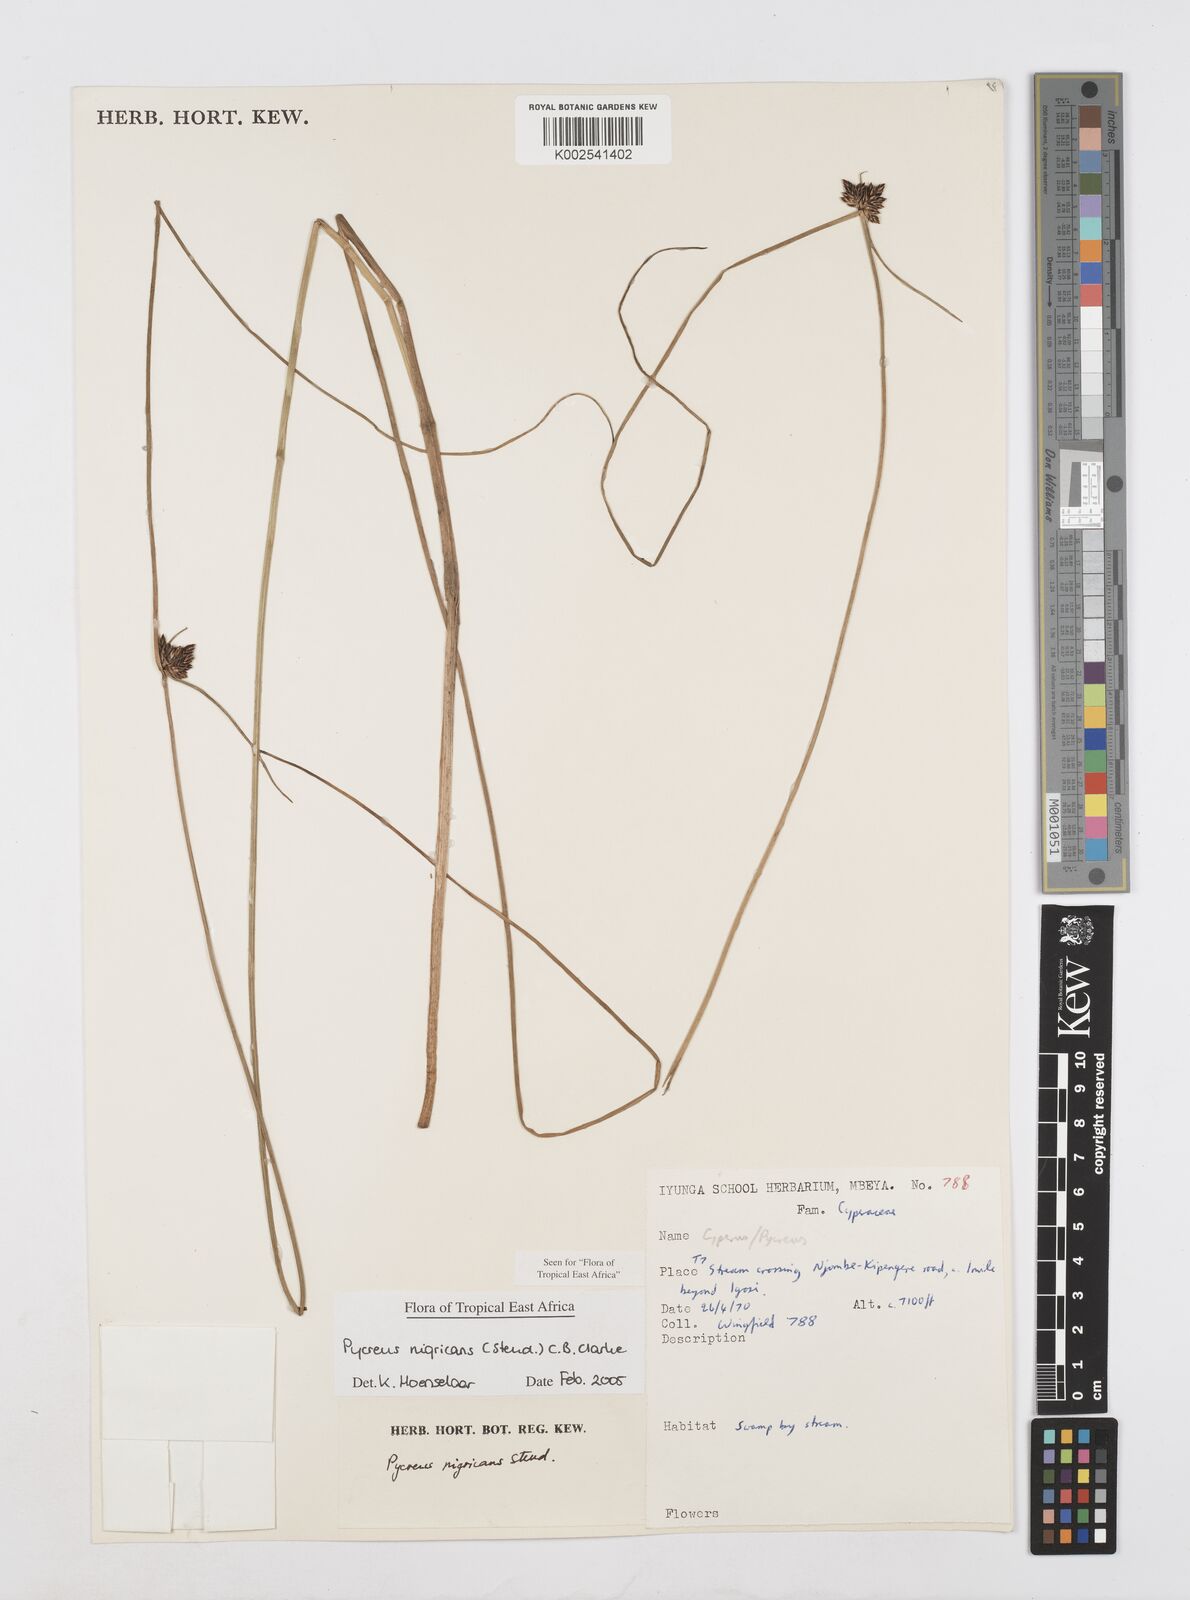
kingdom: Plantae
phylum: Tracheophyta
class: Liliopsida
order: Poales
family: Cyperaceae
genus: Cyperus
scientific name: Cyperus nigricans
